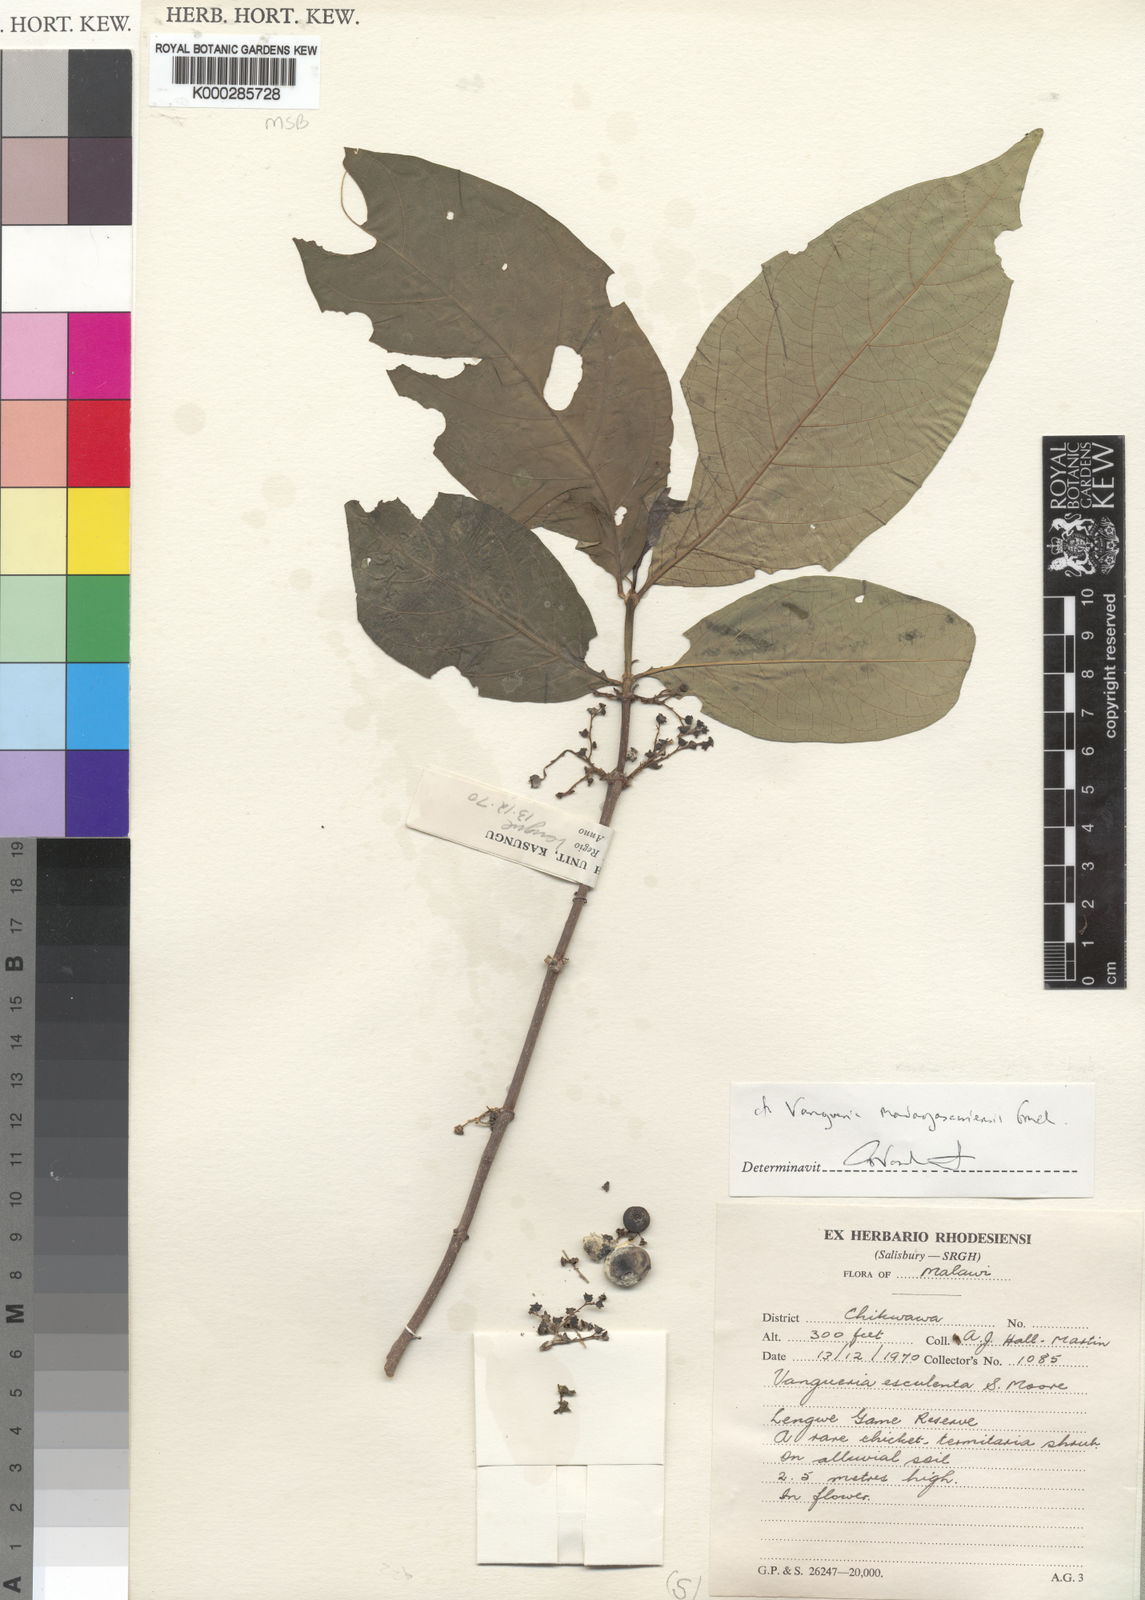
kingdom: Plantae
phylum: Tracheophyta
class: Magnoliopsida
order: Gentianales
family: Rubiaceae
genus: Vangueria
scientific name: Vangueria
